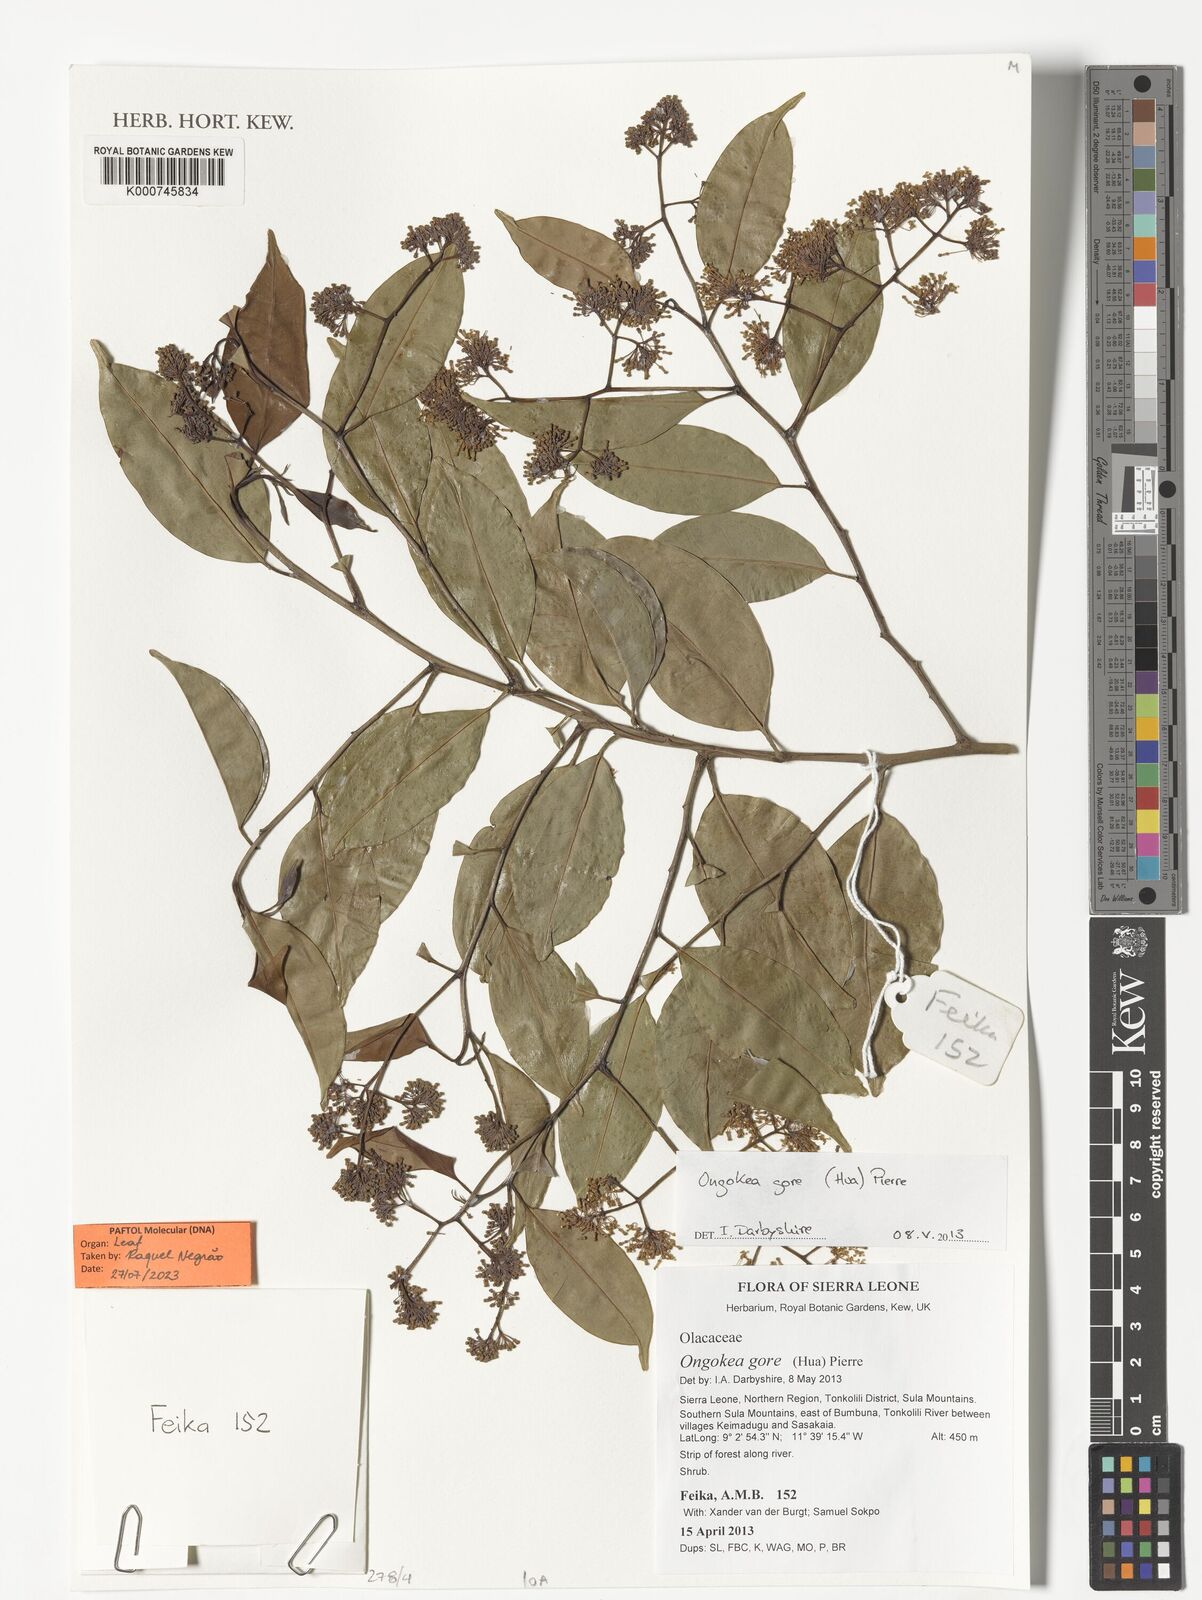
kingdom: Plantae
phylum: Tracheophyta
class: Magnoliopsida
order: Santalales
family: Aptandraceae
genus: Ongokea
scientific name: Ongokea gore
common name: Boleko-nut
